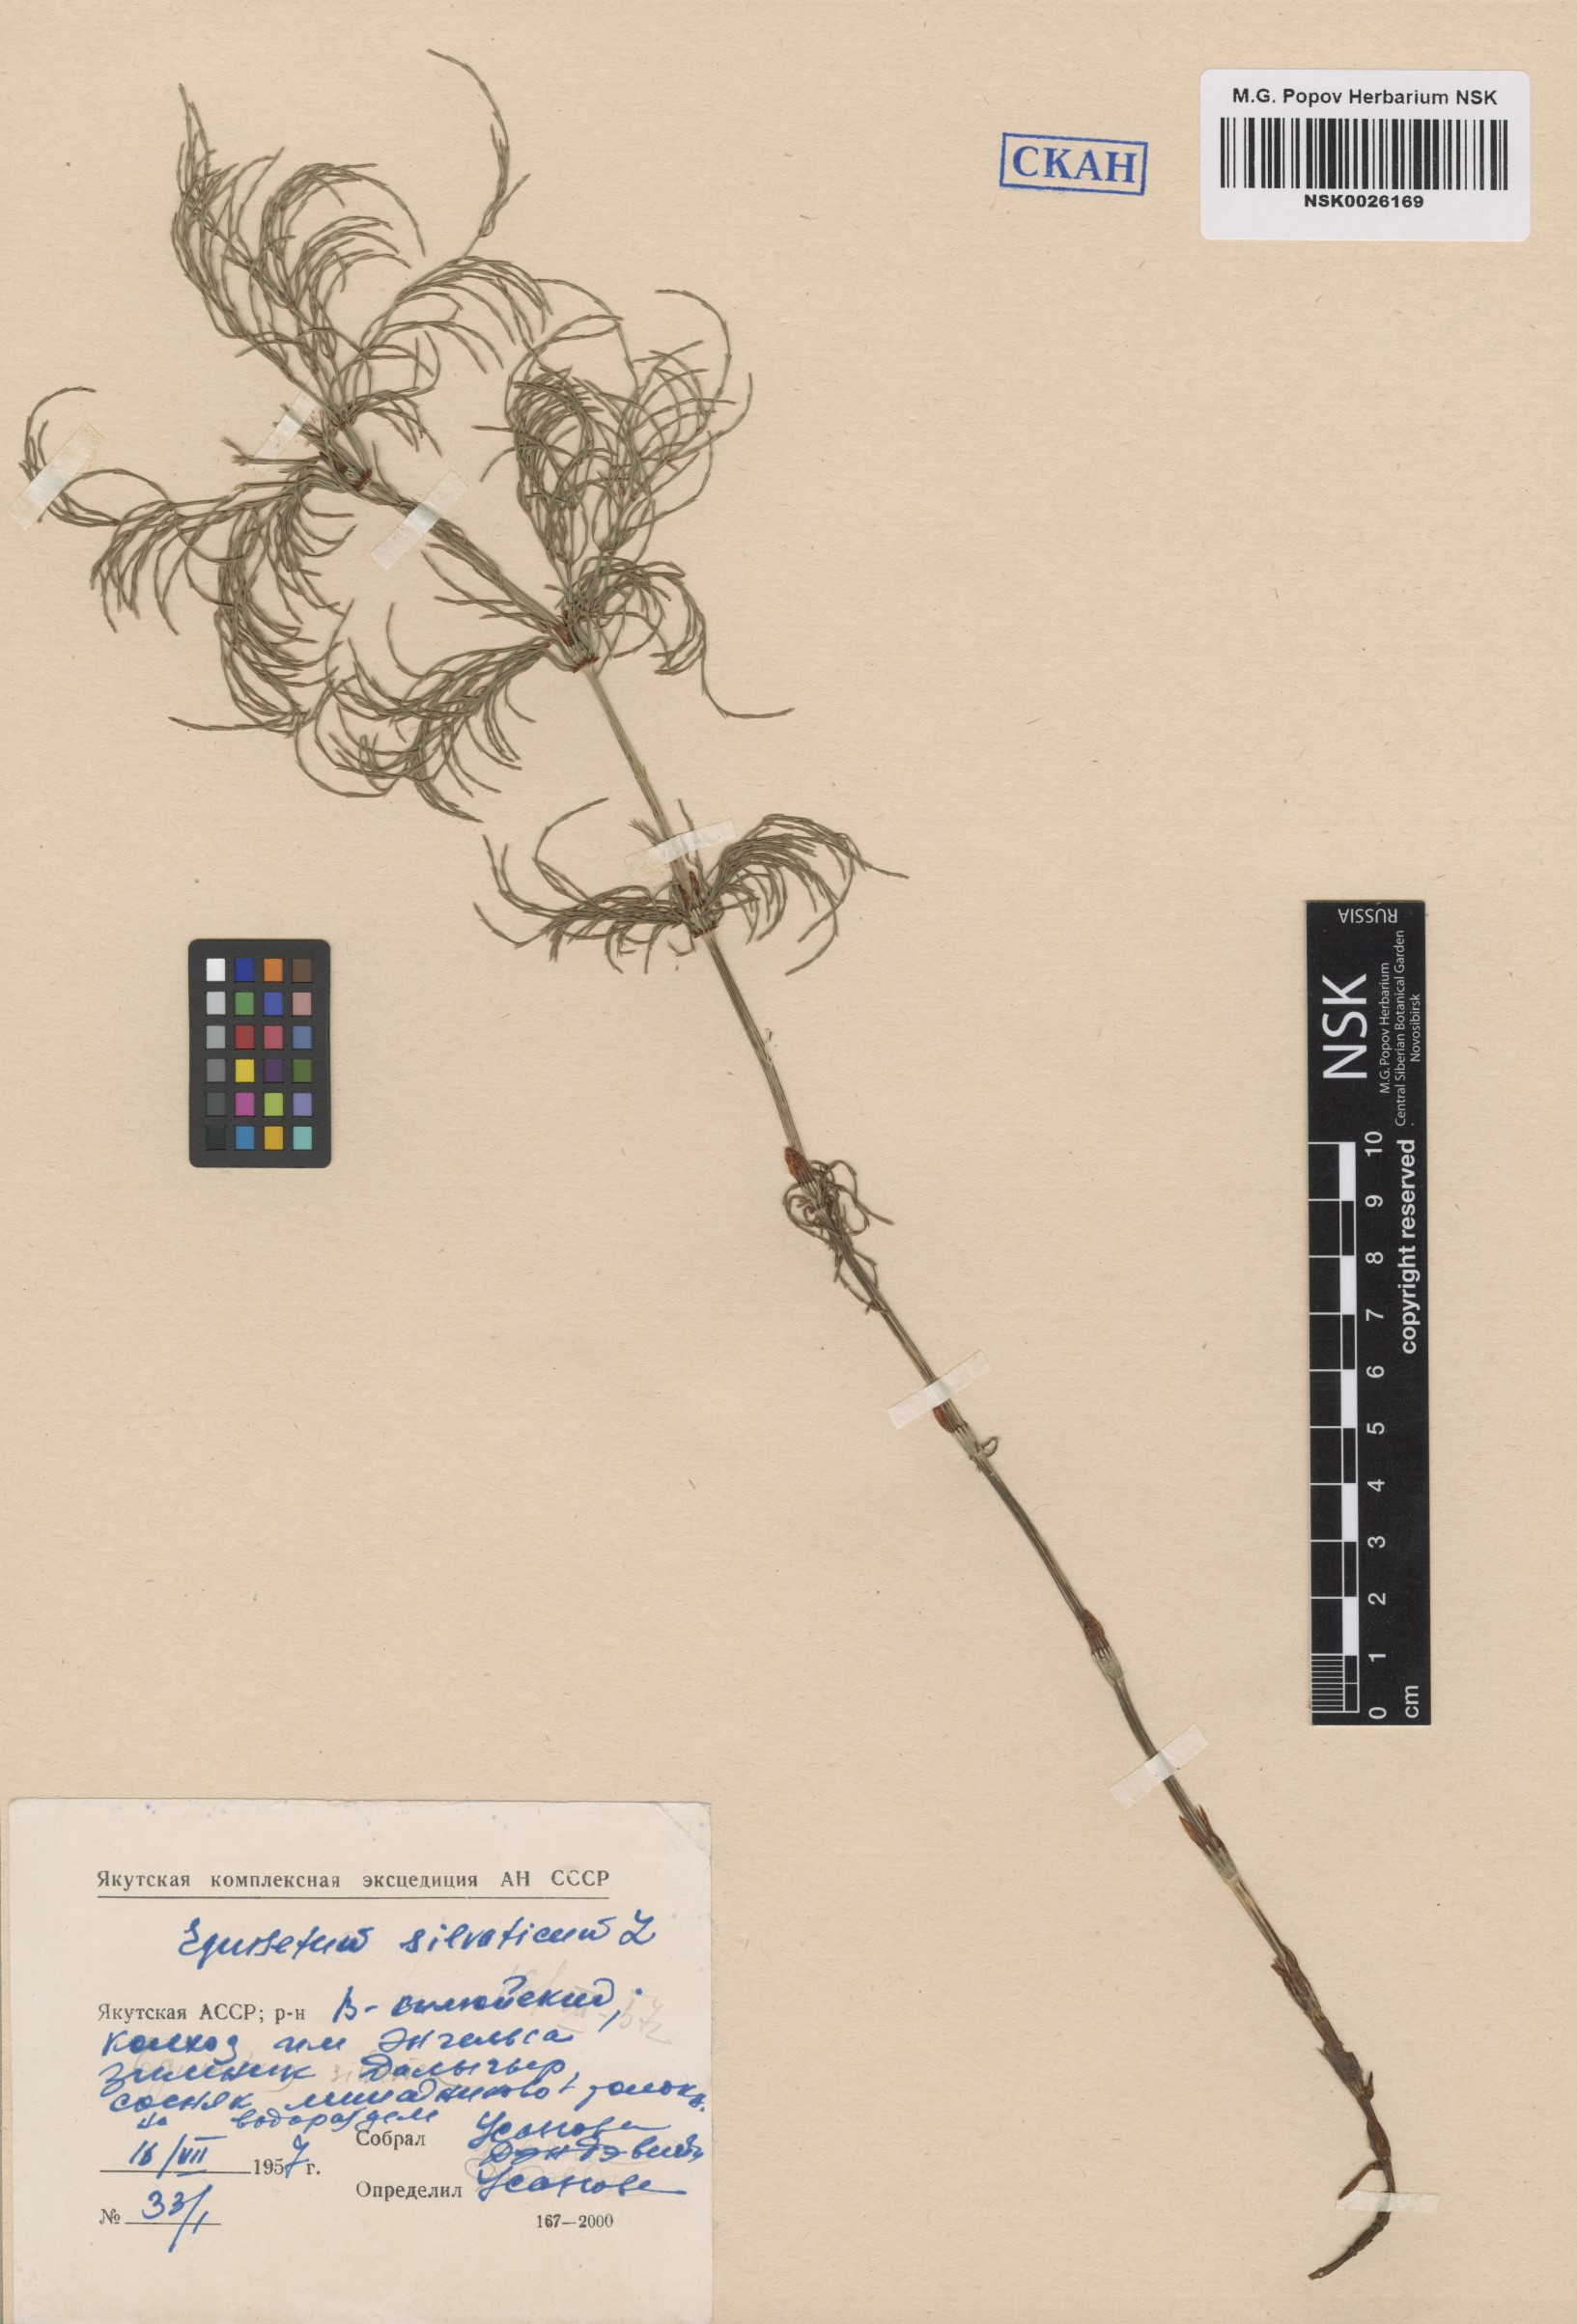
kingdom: Plantae
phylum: Tracheophyta
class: Polypodiopsida
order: Equisetales
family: Equisetaceae
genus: Equisetum
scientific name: Equisetum sylvaticum
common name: Wood horsetail
